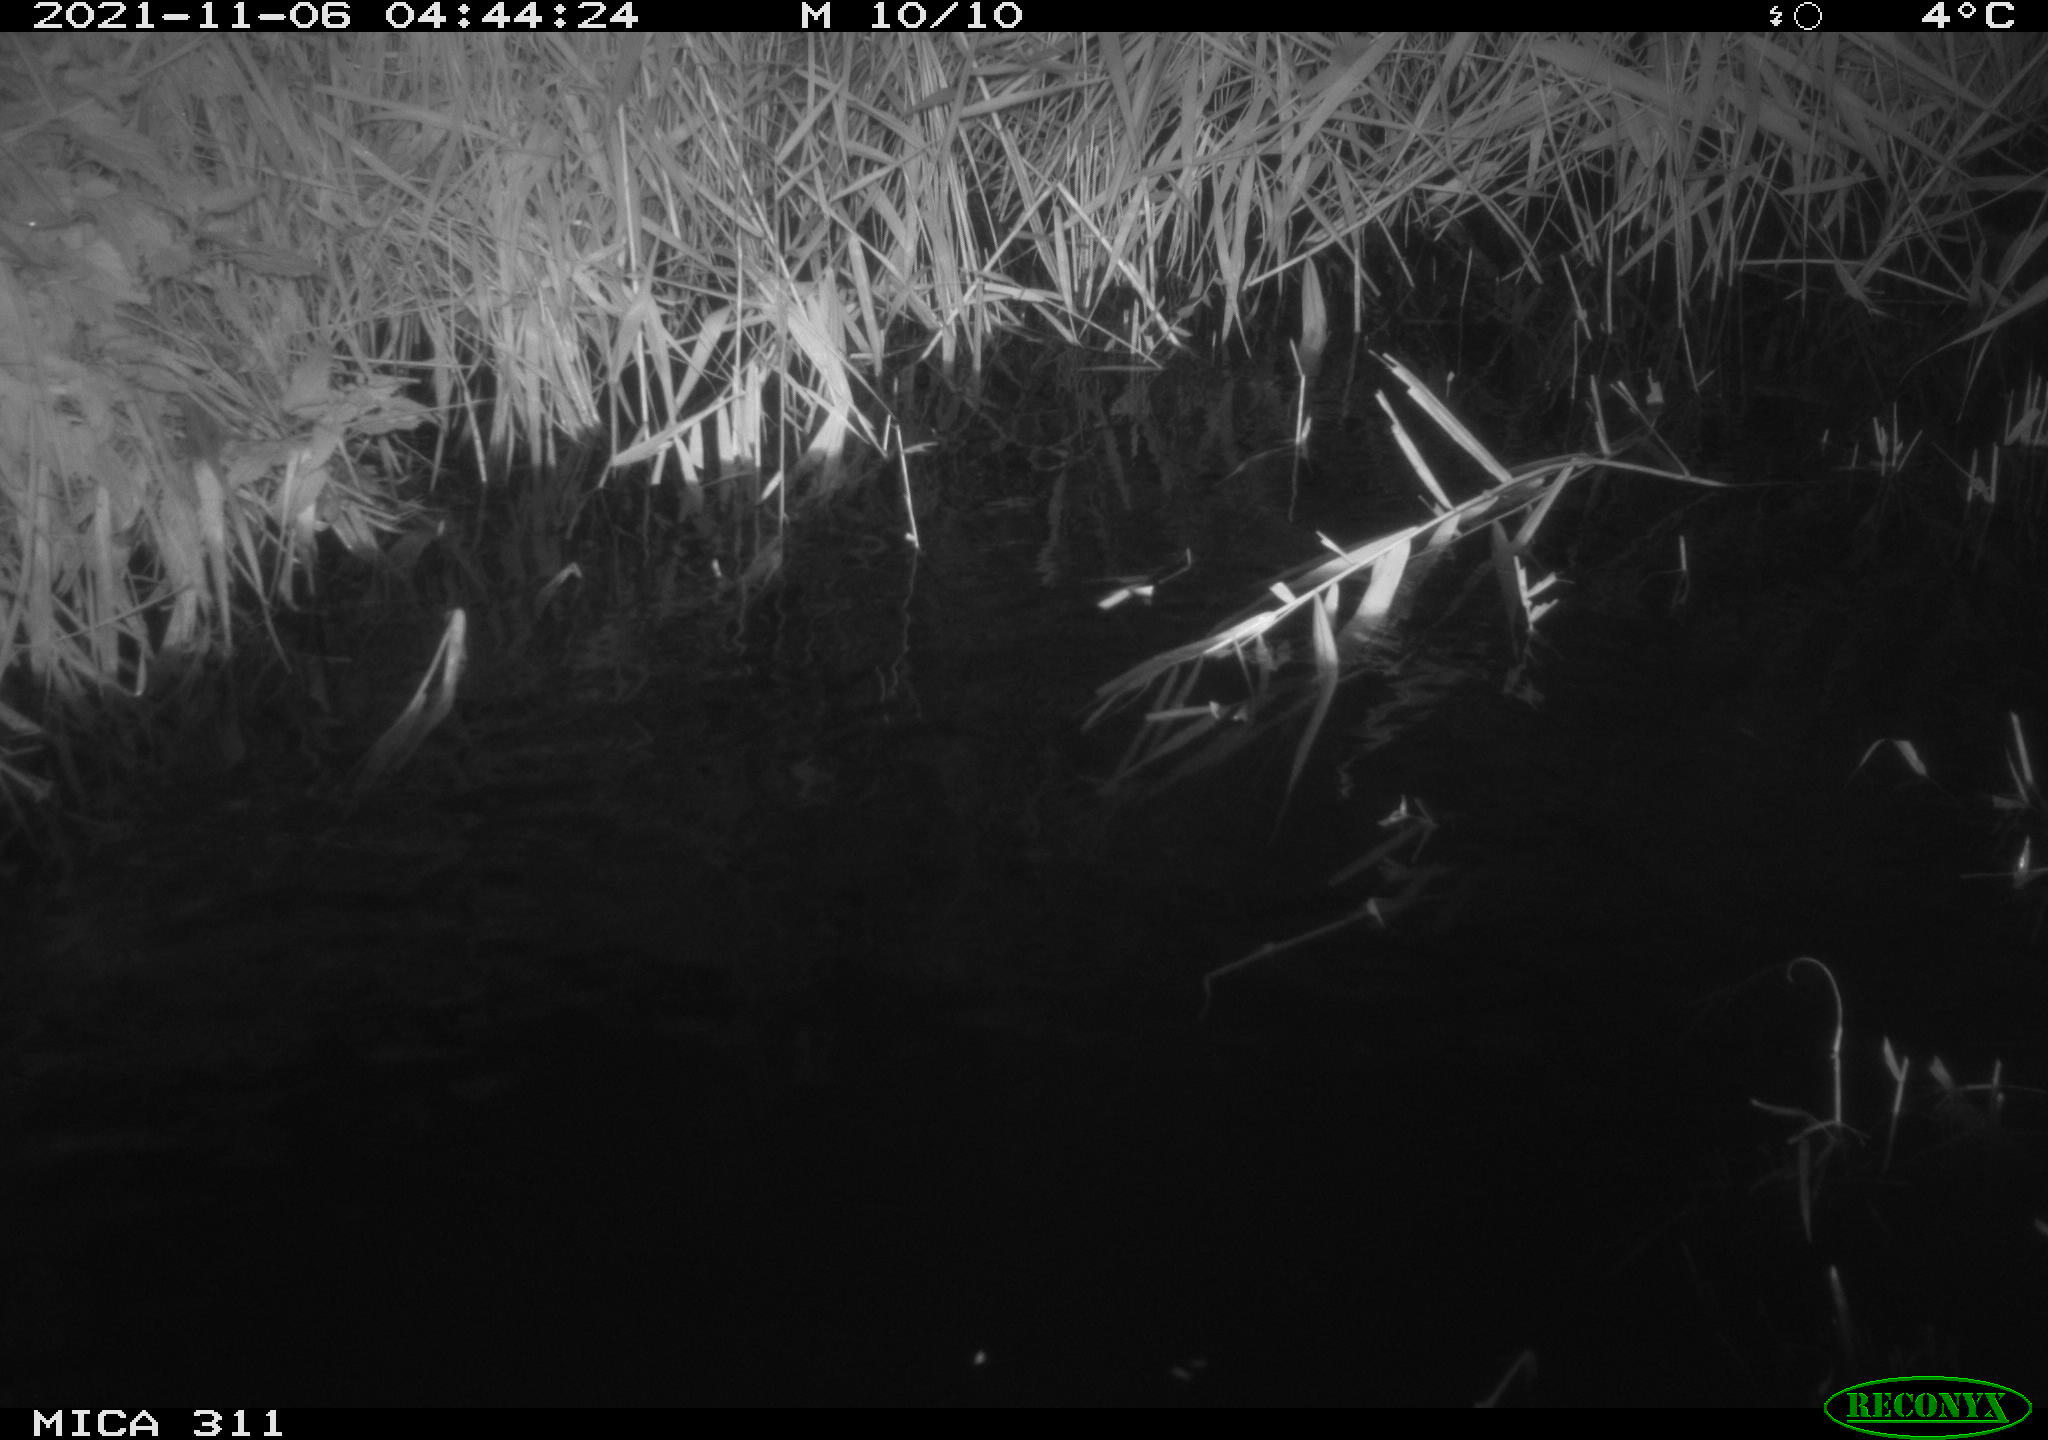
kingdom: Animalia
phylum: Chordata
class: Mammalia
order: Rodentia
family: Muridae
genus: Rattus
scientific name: Rattus norvegicus
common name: Brown rat
